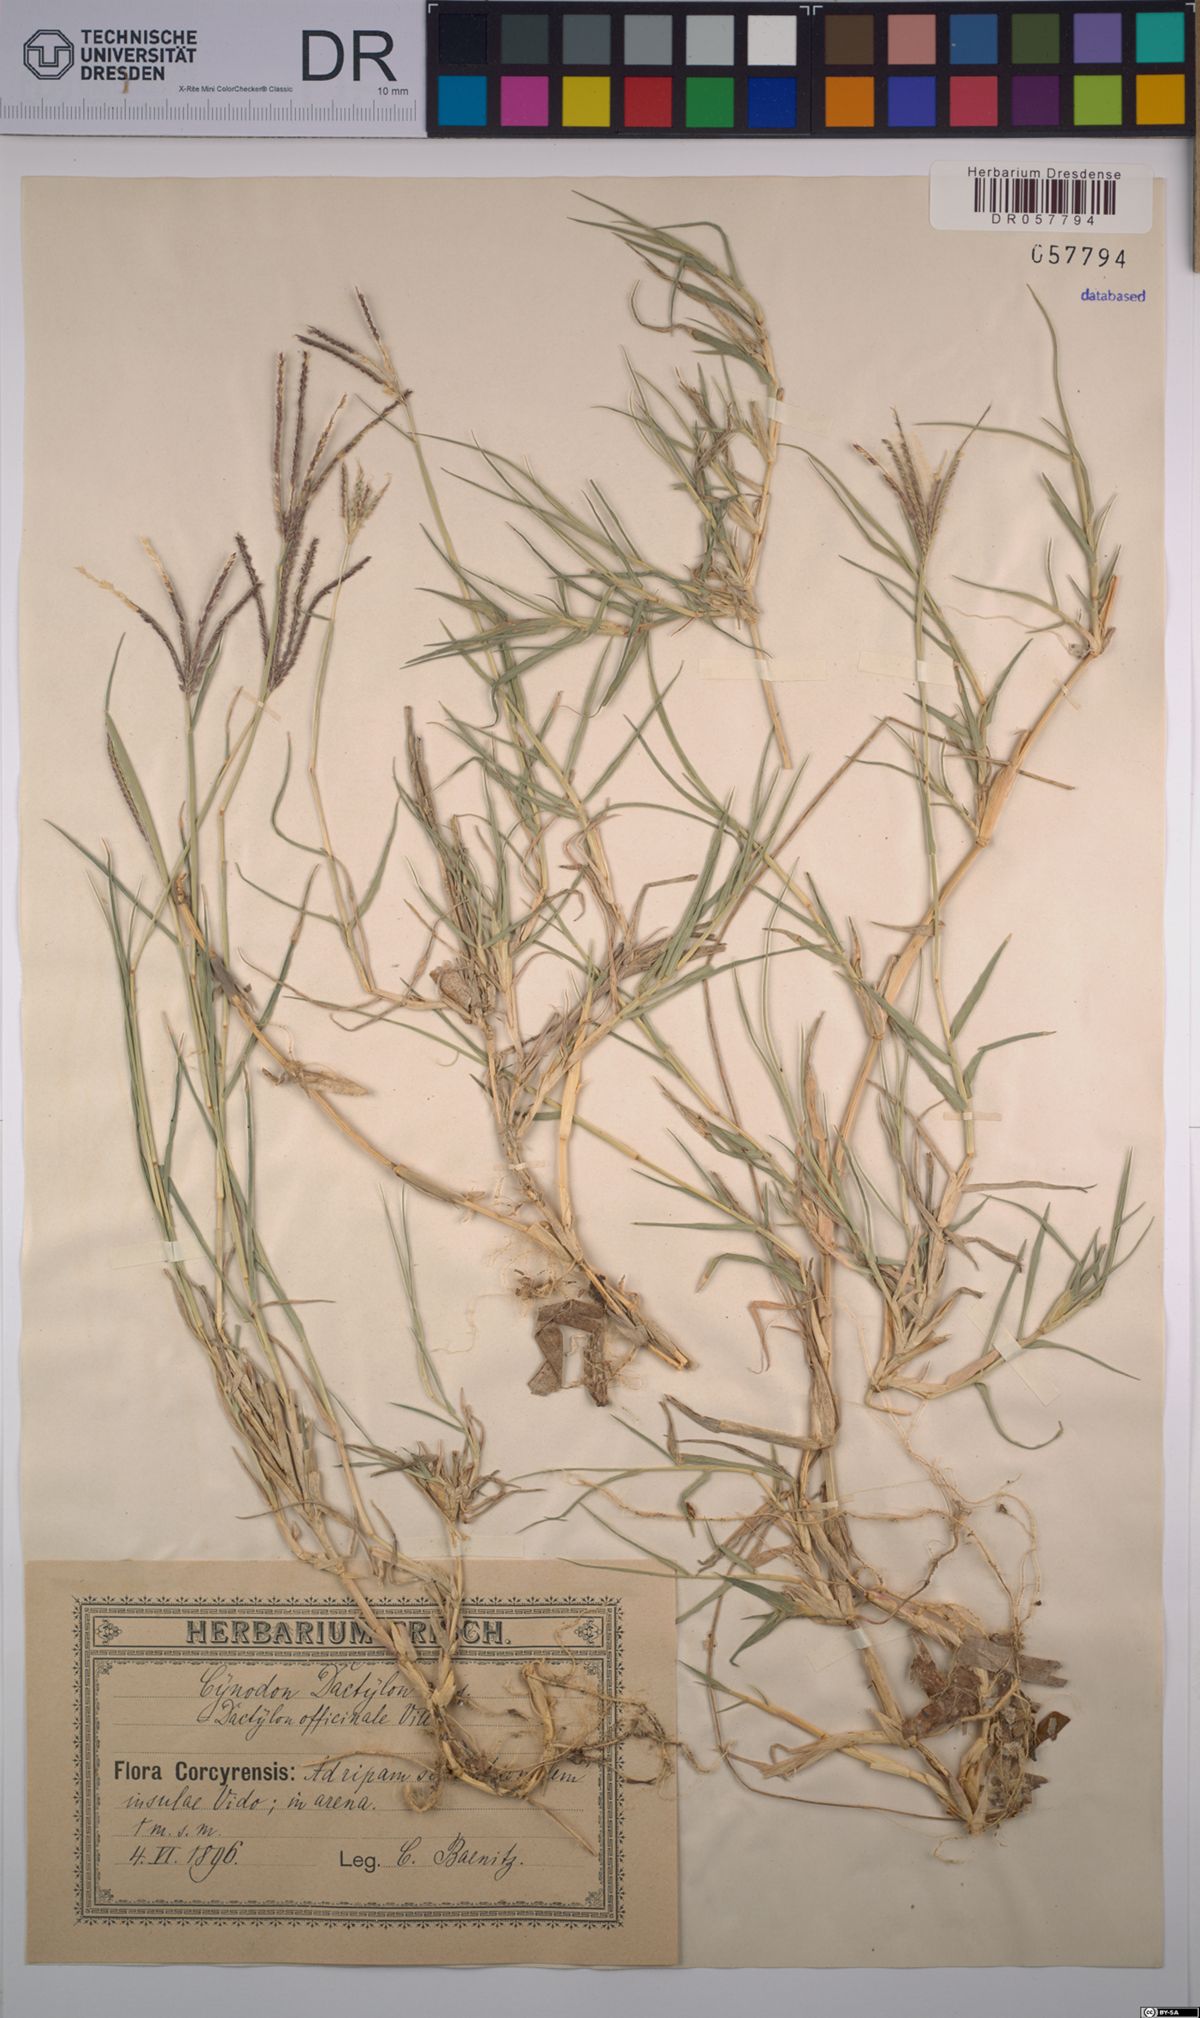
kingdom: Plantae
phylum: Tracheophyta
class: Liliopsida
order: Poales
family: Poaceae
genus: Cynodon
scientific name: Cynodon dactylon
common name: Bermuda grass
